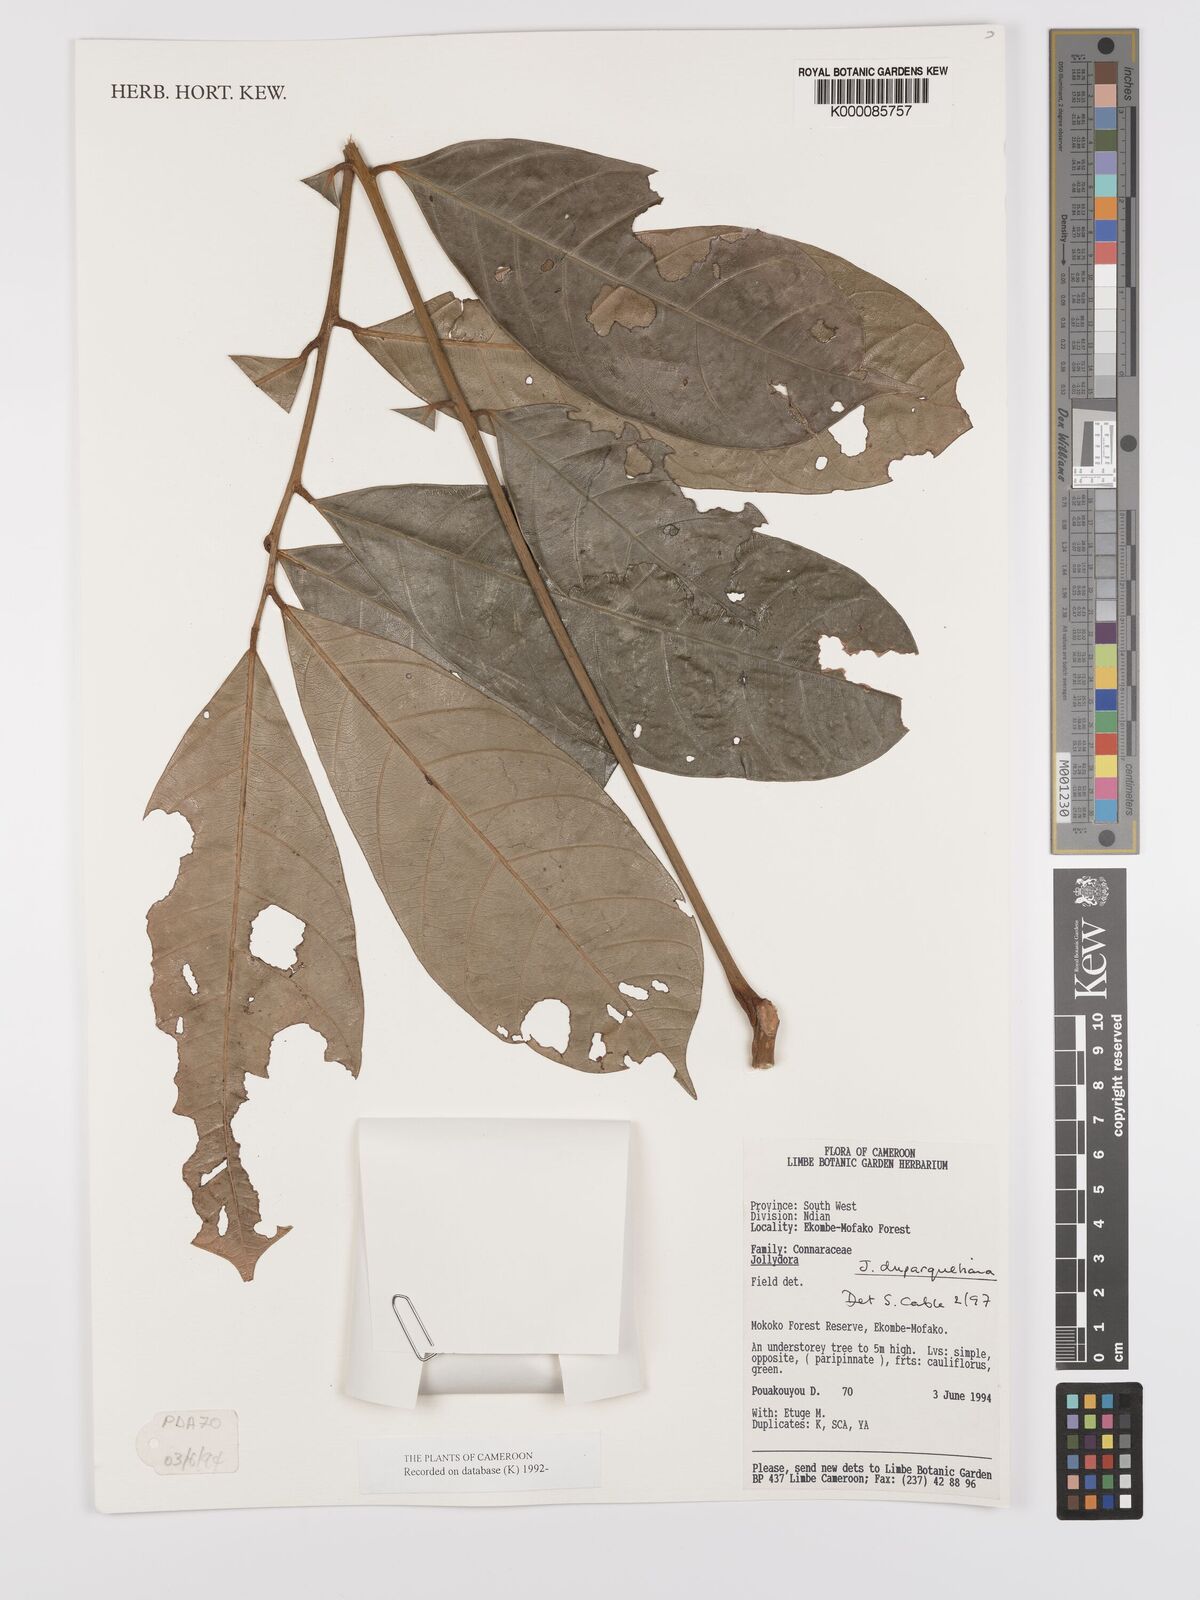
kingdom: Plantae
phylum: Tracheophyta
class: Magnoliopsida
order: Oxalidales
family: Connaraceae
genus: Jollydora
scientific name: Jollydora duparquetiana
